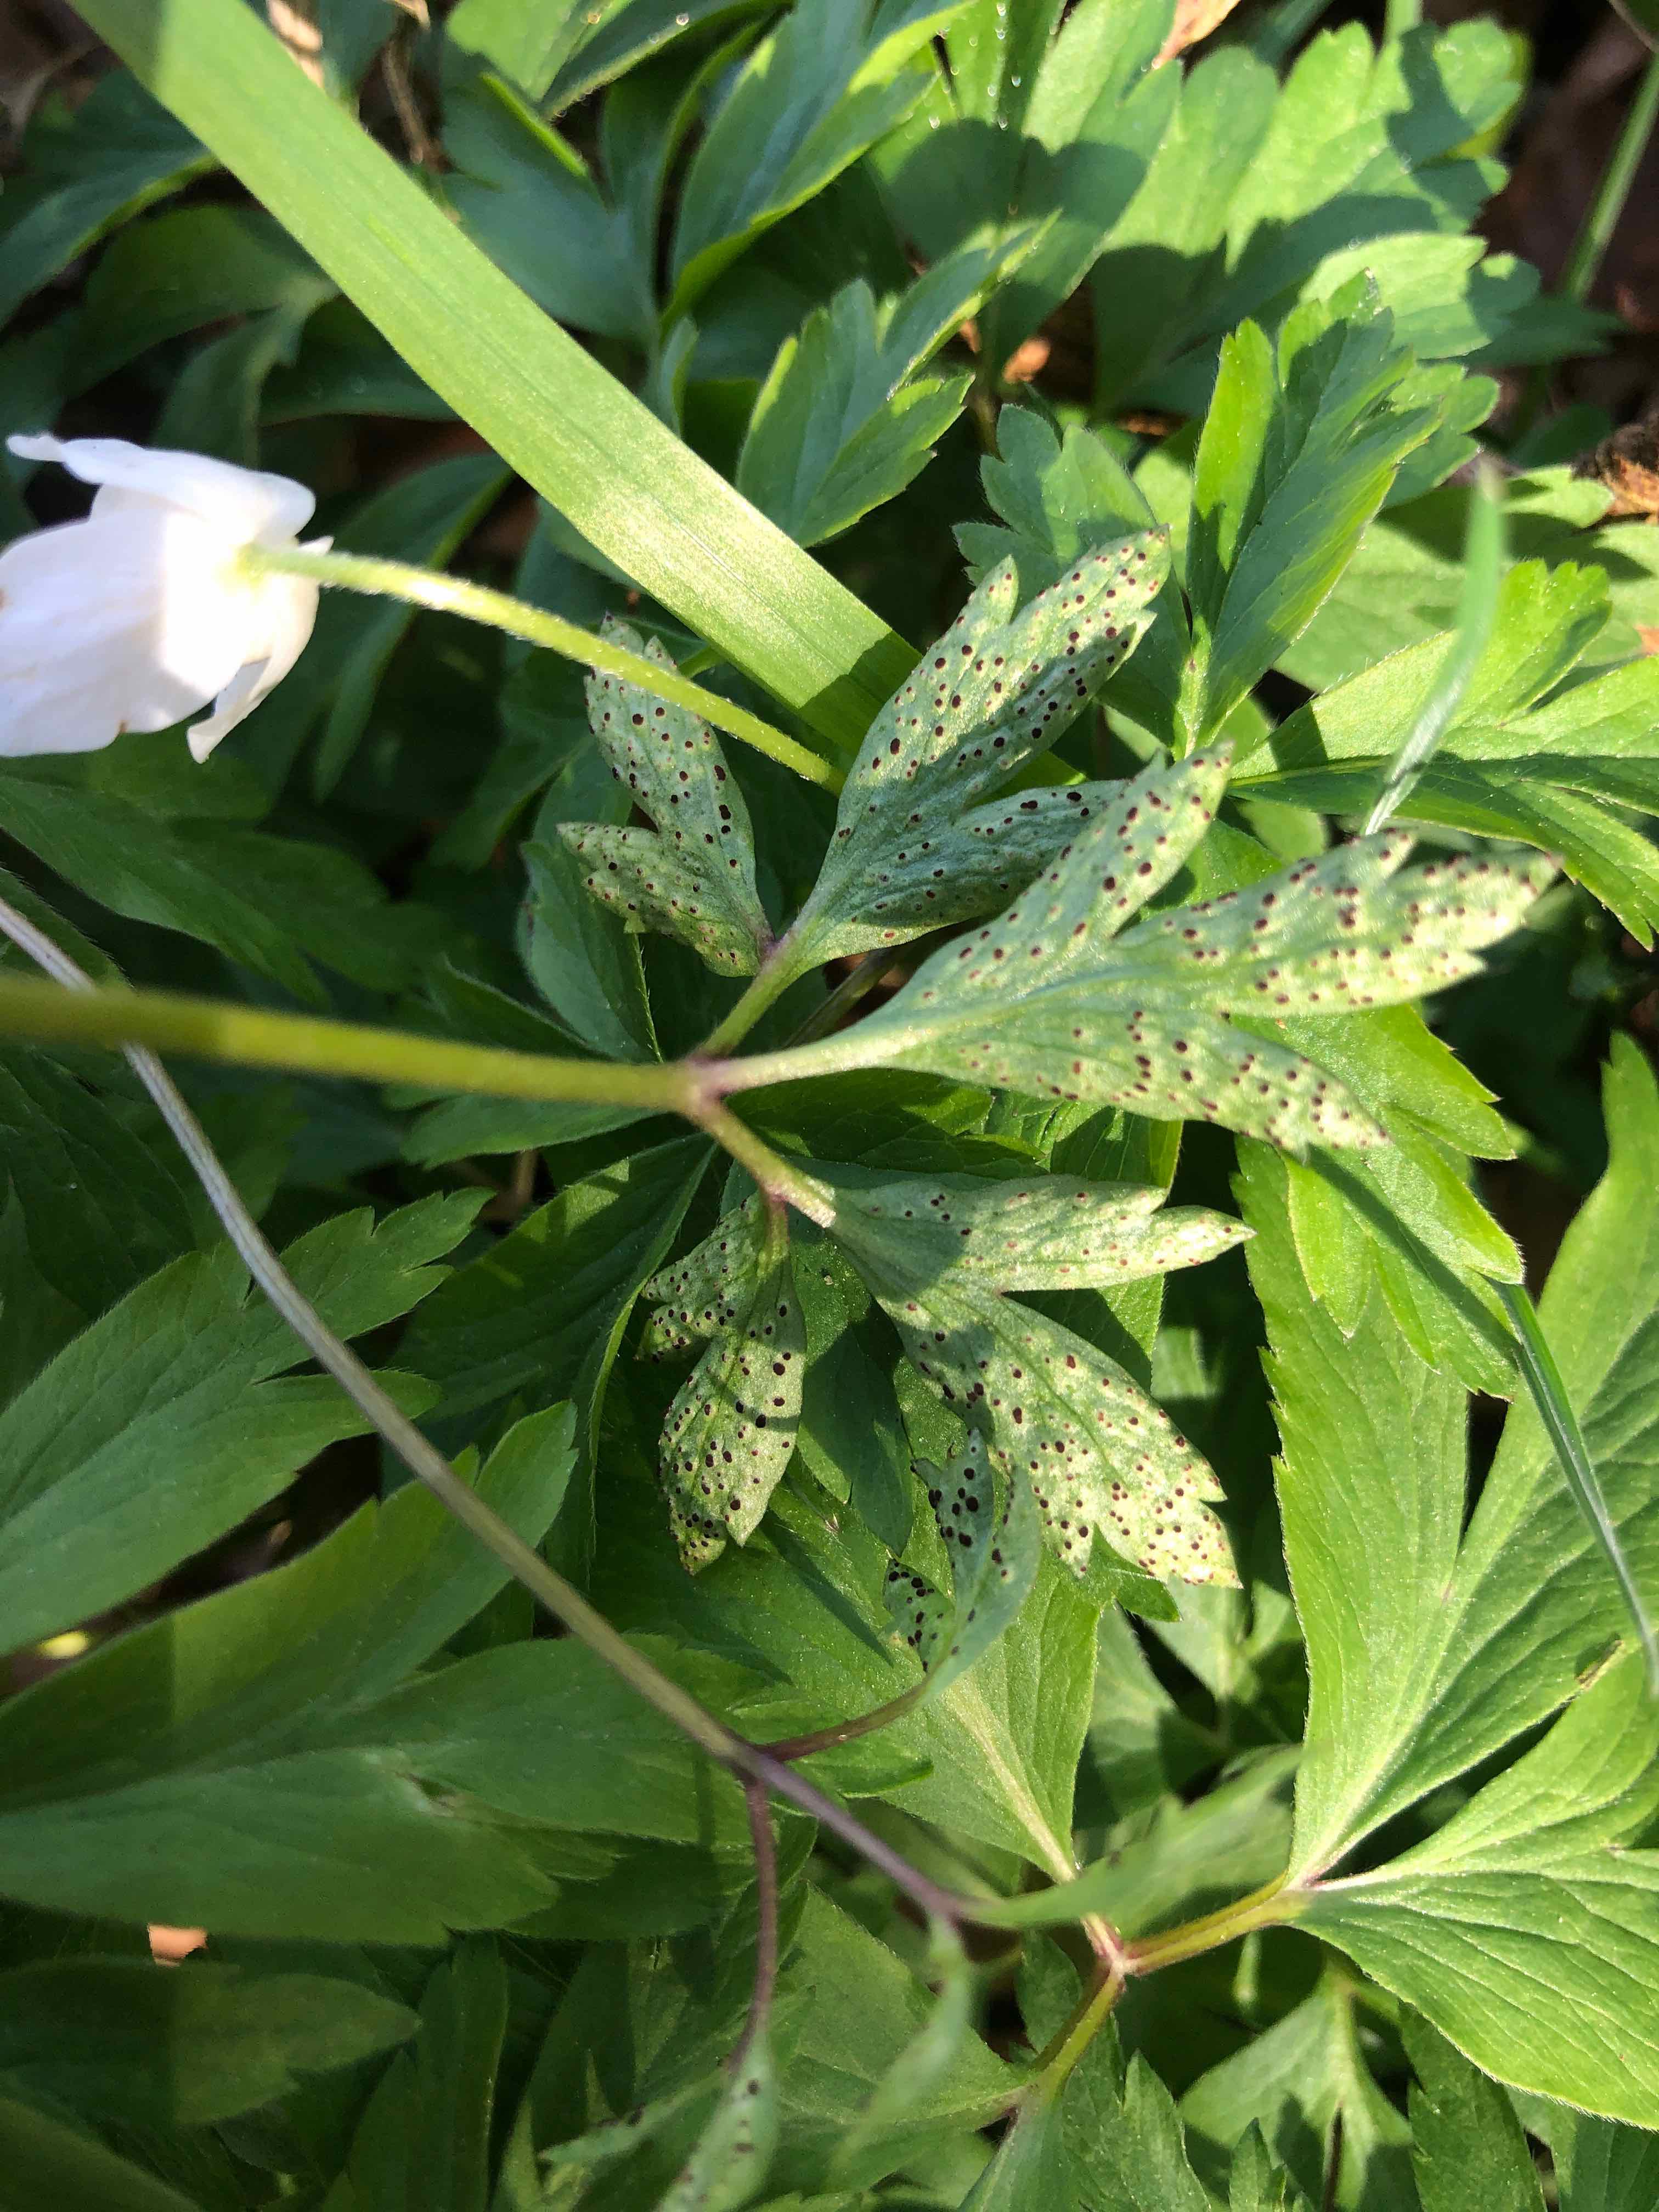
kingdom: Fungi
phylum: Basidiomycota
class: Pucciniomycetes
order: Pucciniales
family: Tranzscheliaceae
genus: Tranzschelia
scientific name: Tranzschelia anemones
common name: anemone-knæksporerust
